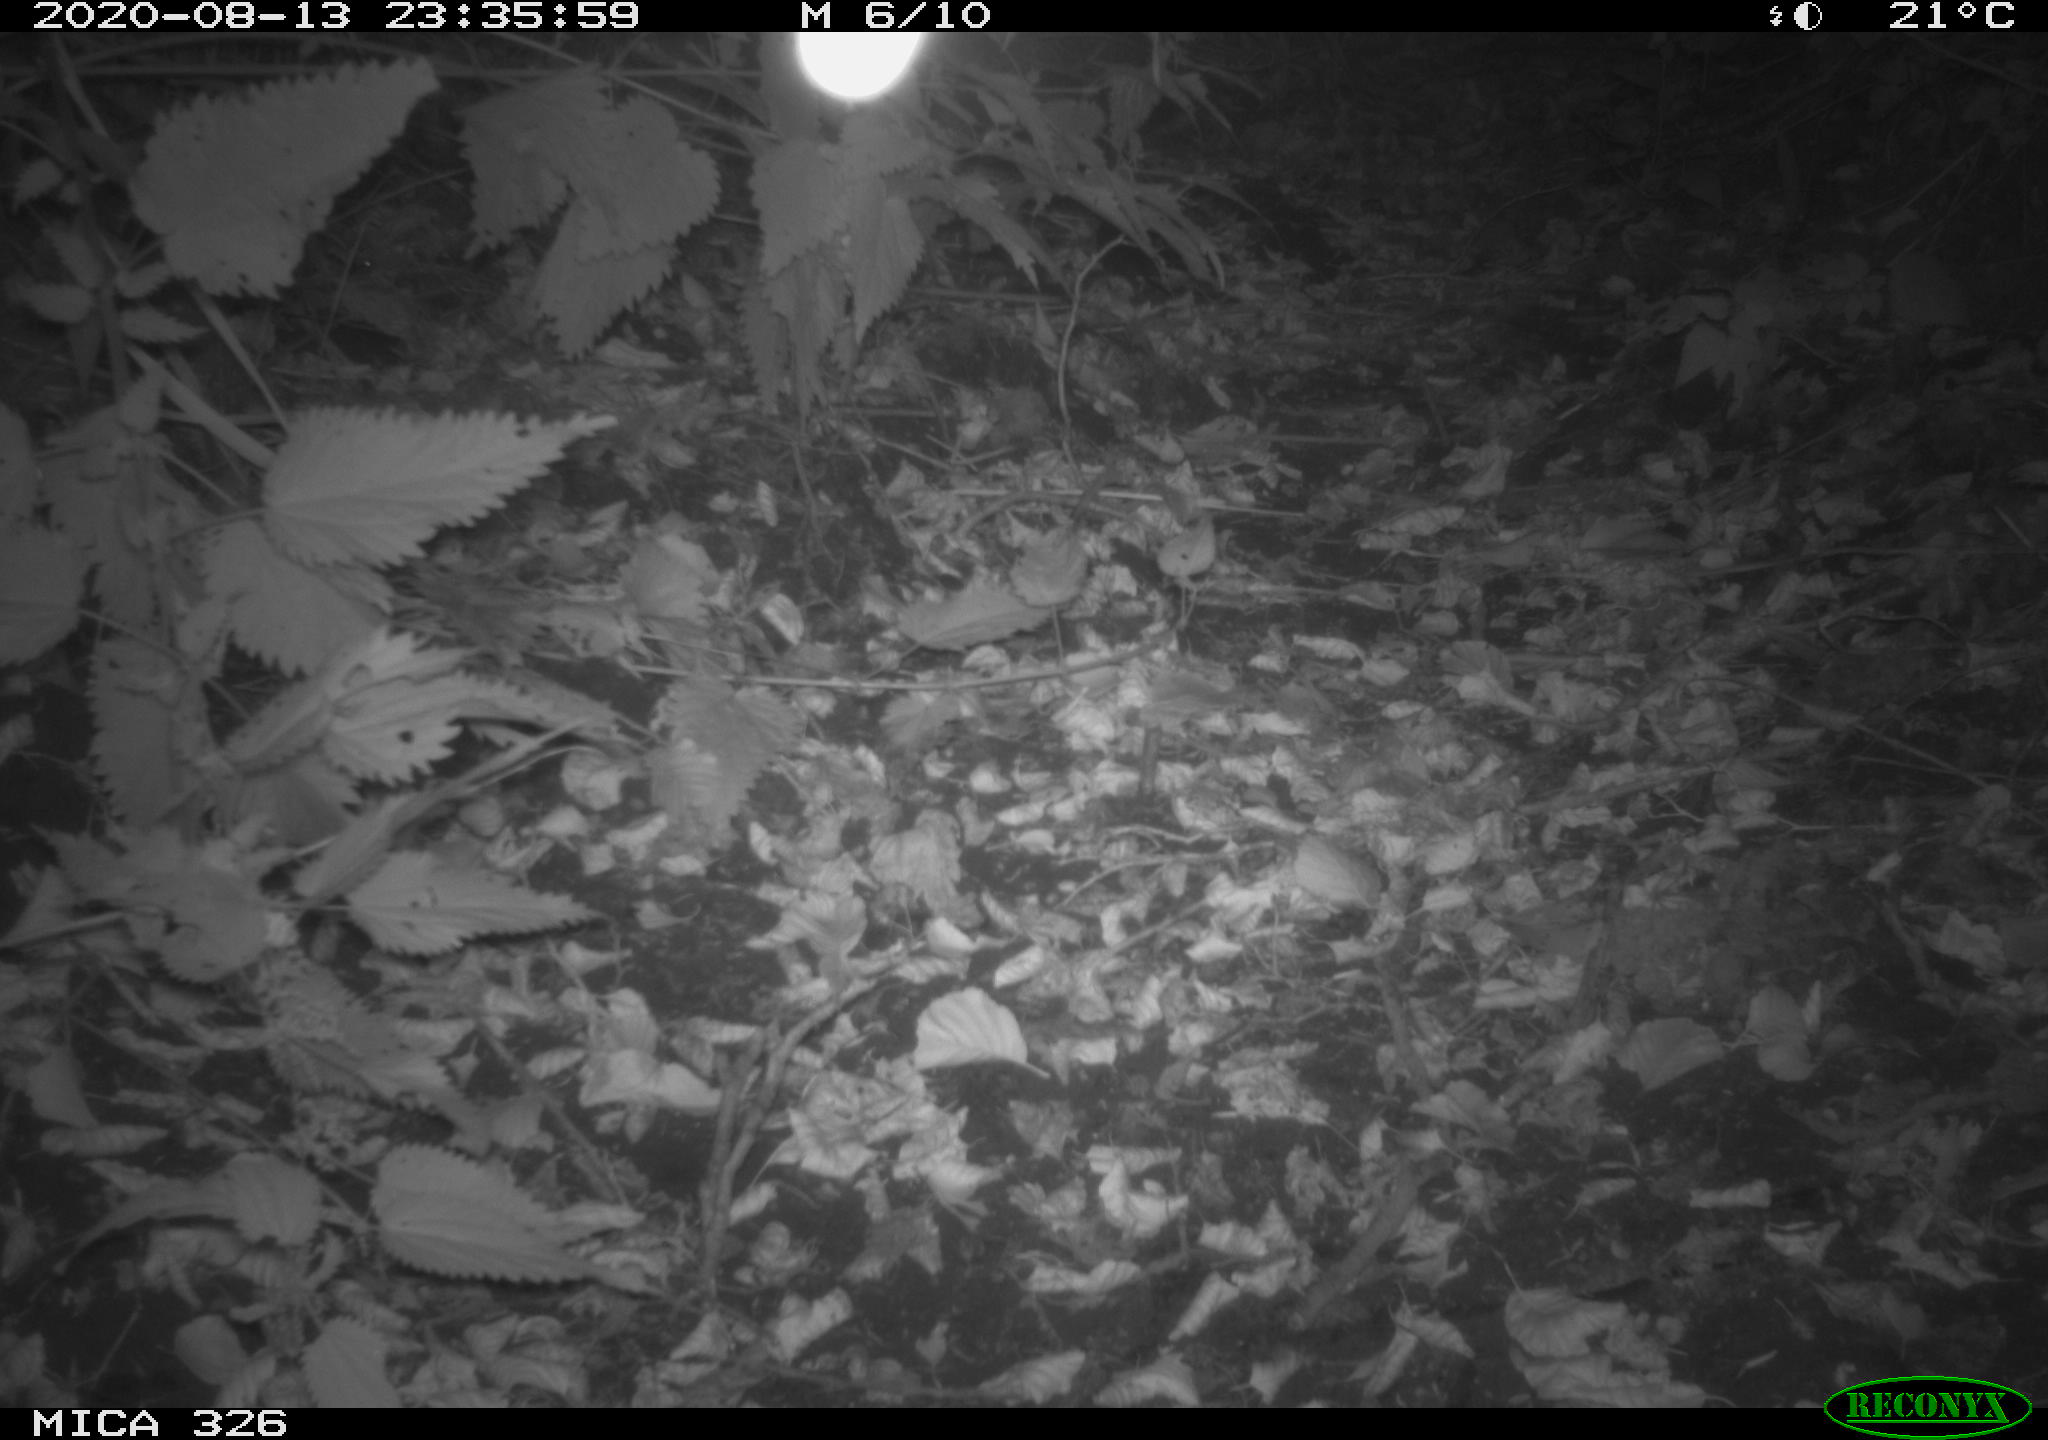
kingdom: Animalia
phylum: Chordata
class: Mammalia
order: Rodentia
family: Cricetidae
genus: Arvicola
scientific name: Arvicola amphibius
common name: European water vole
